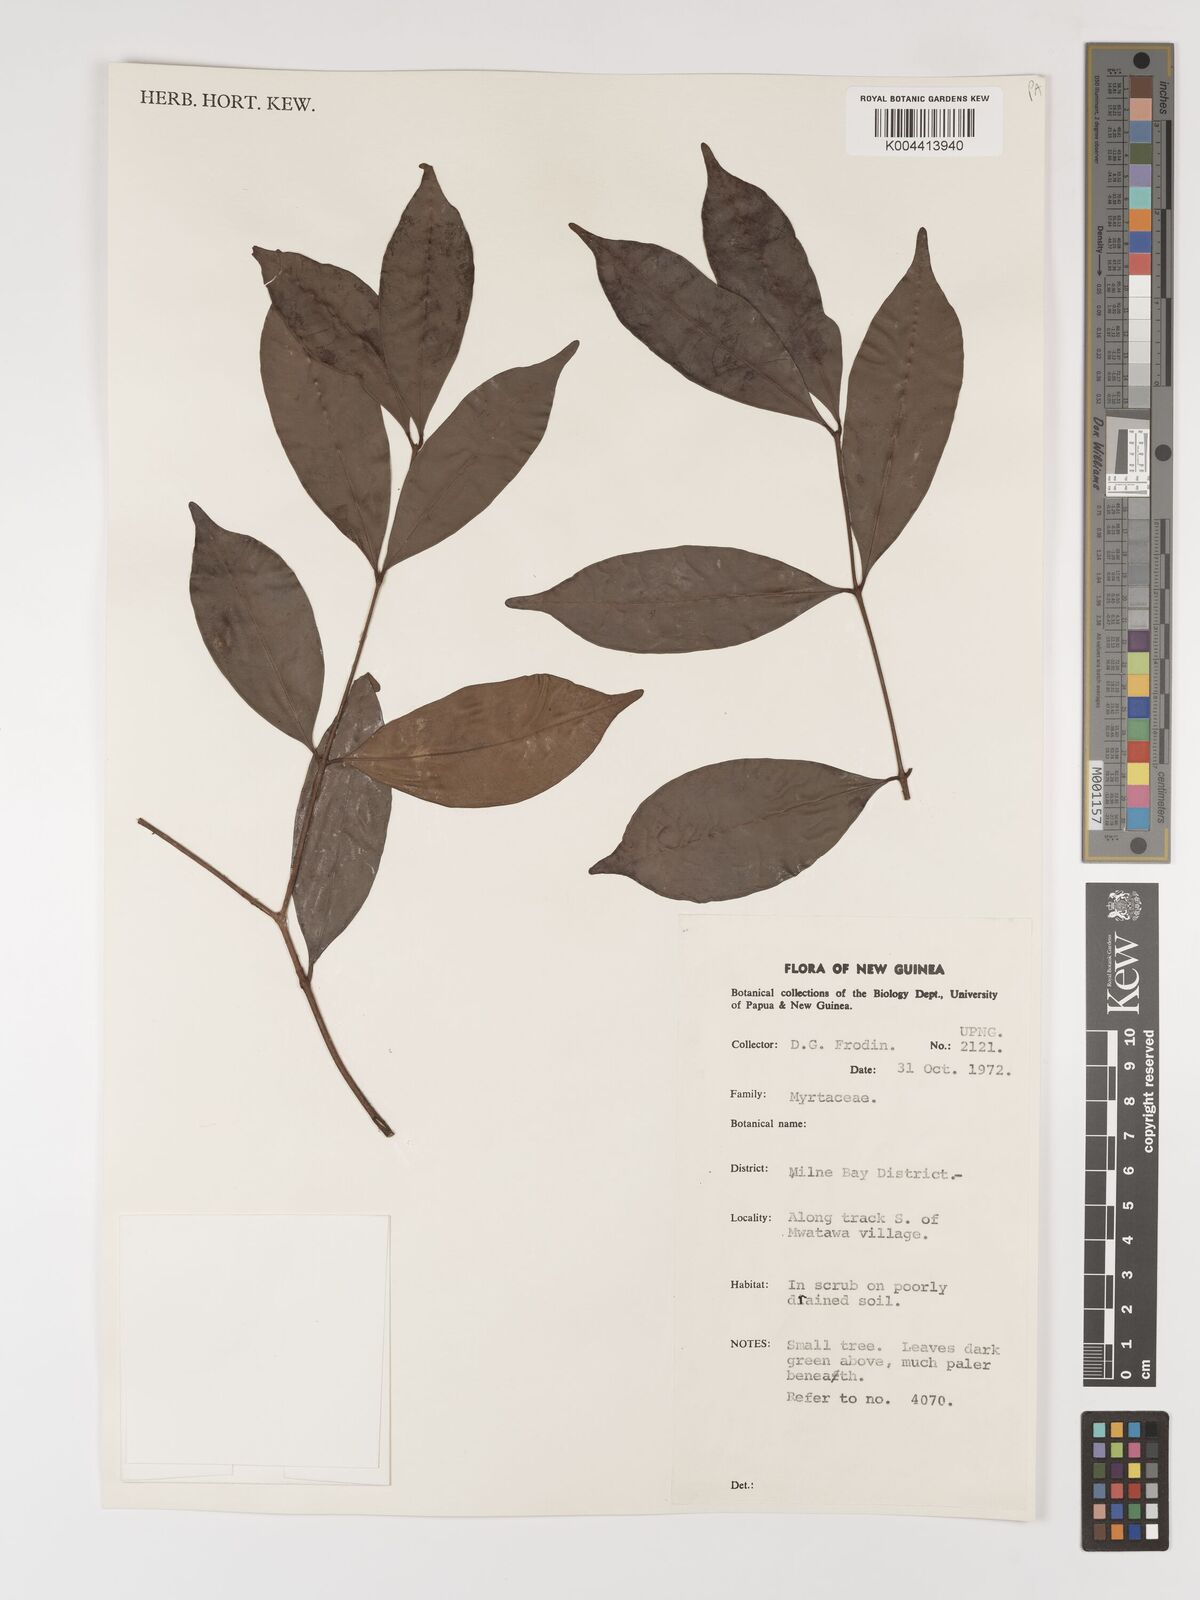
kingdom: Plantae
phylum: Tracheophyta
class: Magnoliopsida
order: Myrtales
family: Myrtaceae
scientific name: Myrtaceae
